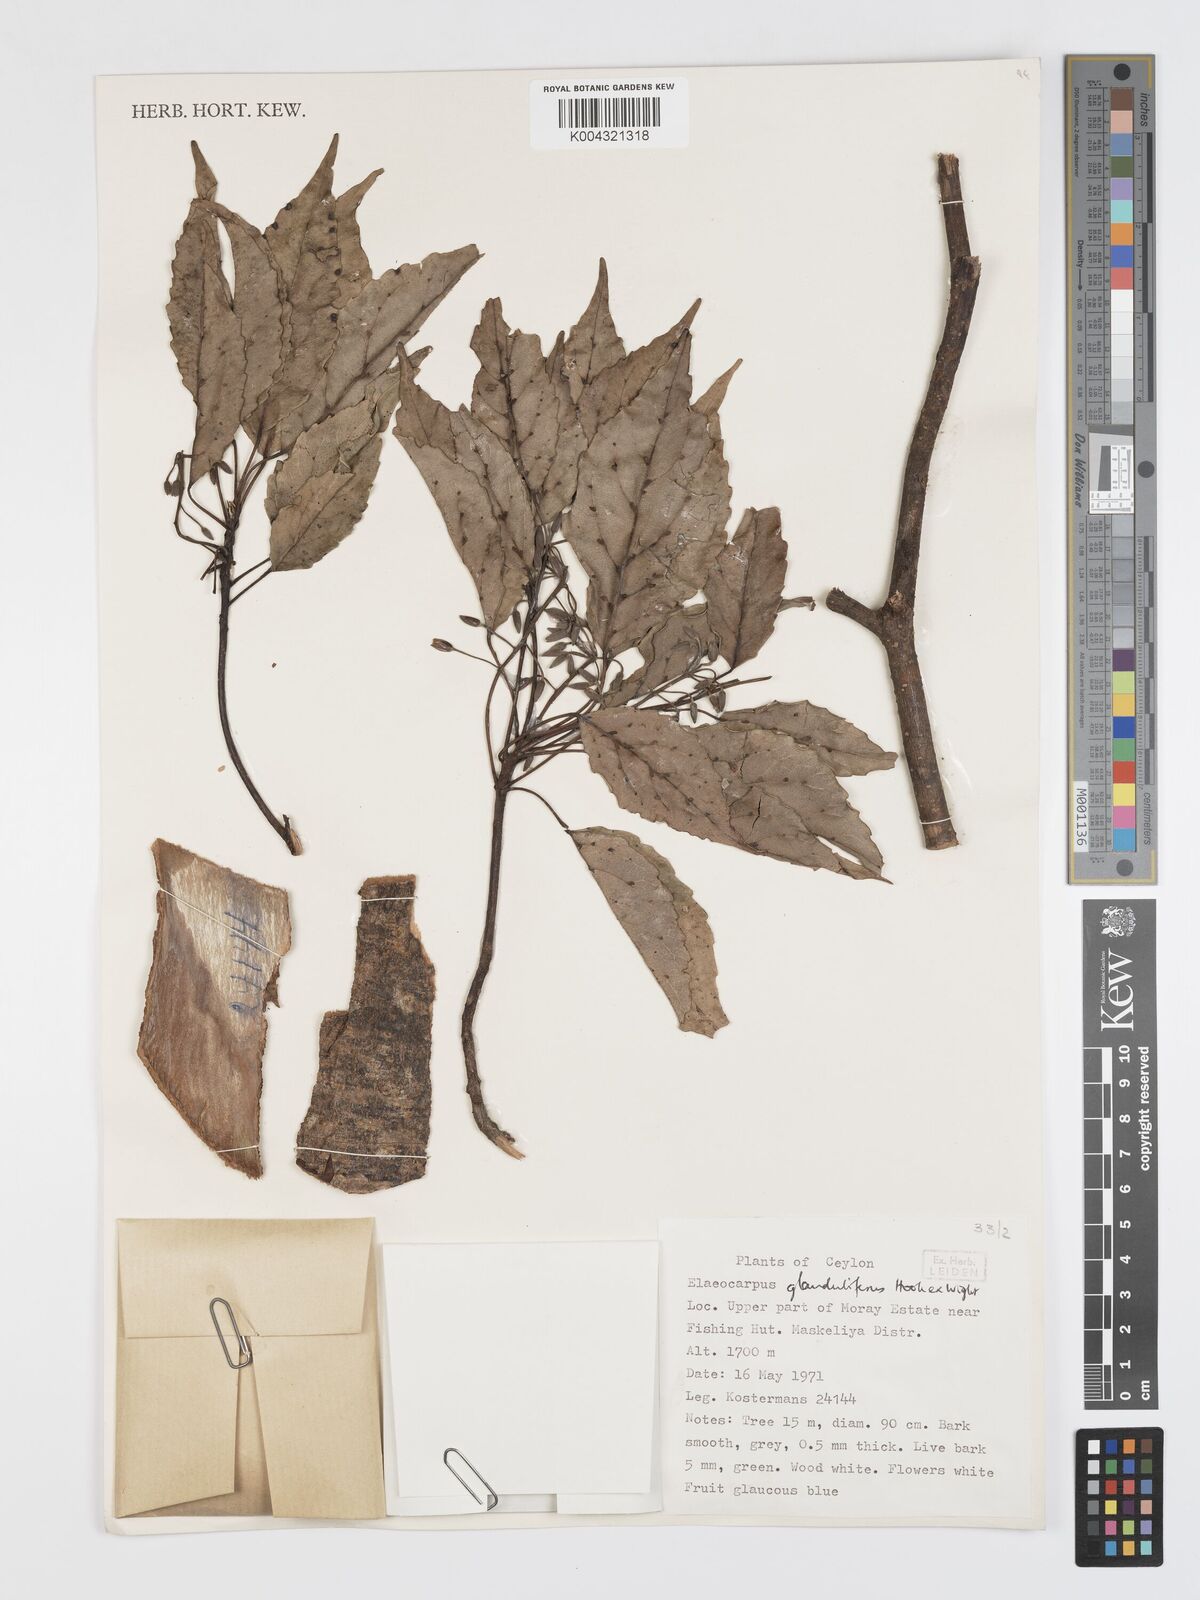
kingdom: Plantae
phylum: Tracheophyta
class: Magnoliopsida
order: Oxalidales
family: Elaeocarpaceae
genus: Elaeocarpus
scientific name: Elaeocarpus glandulifer
